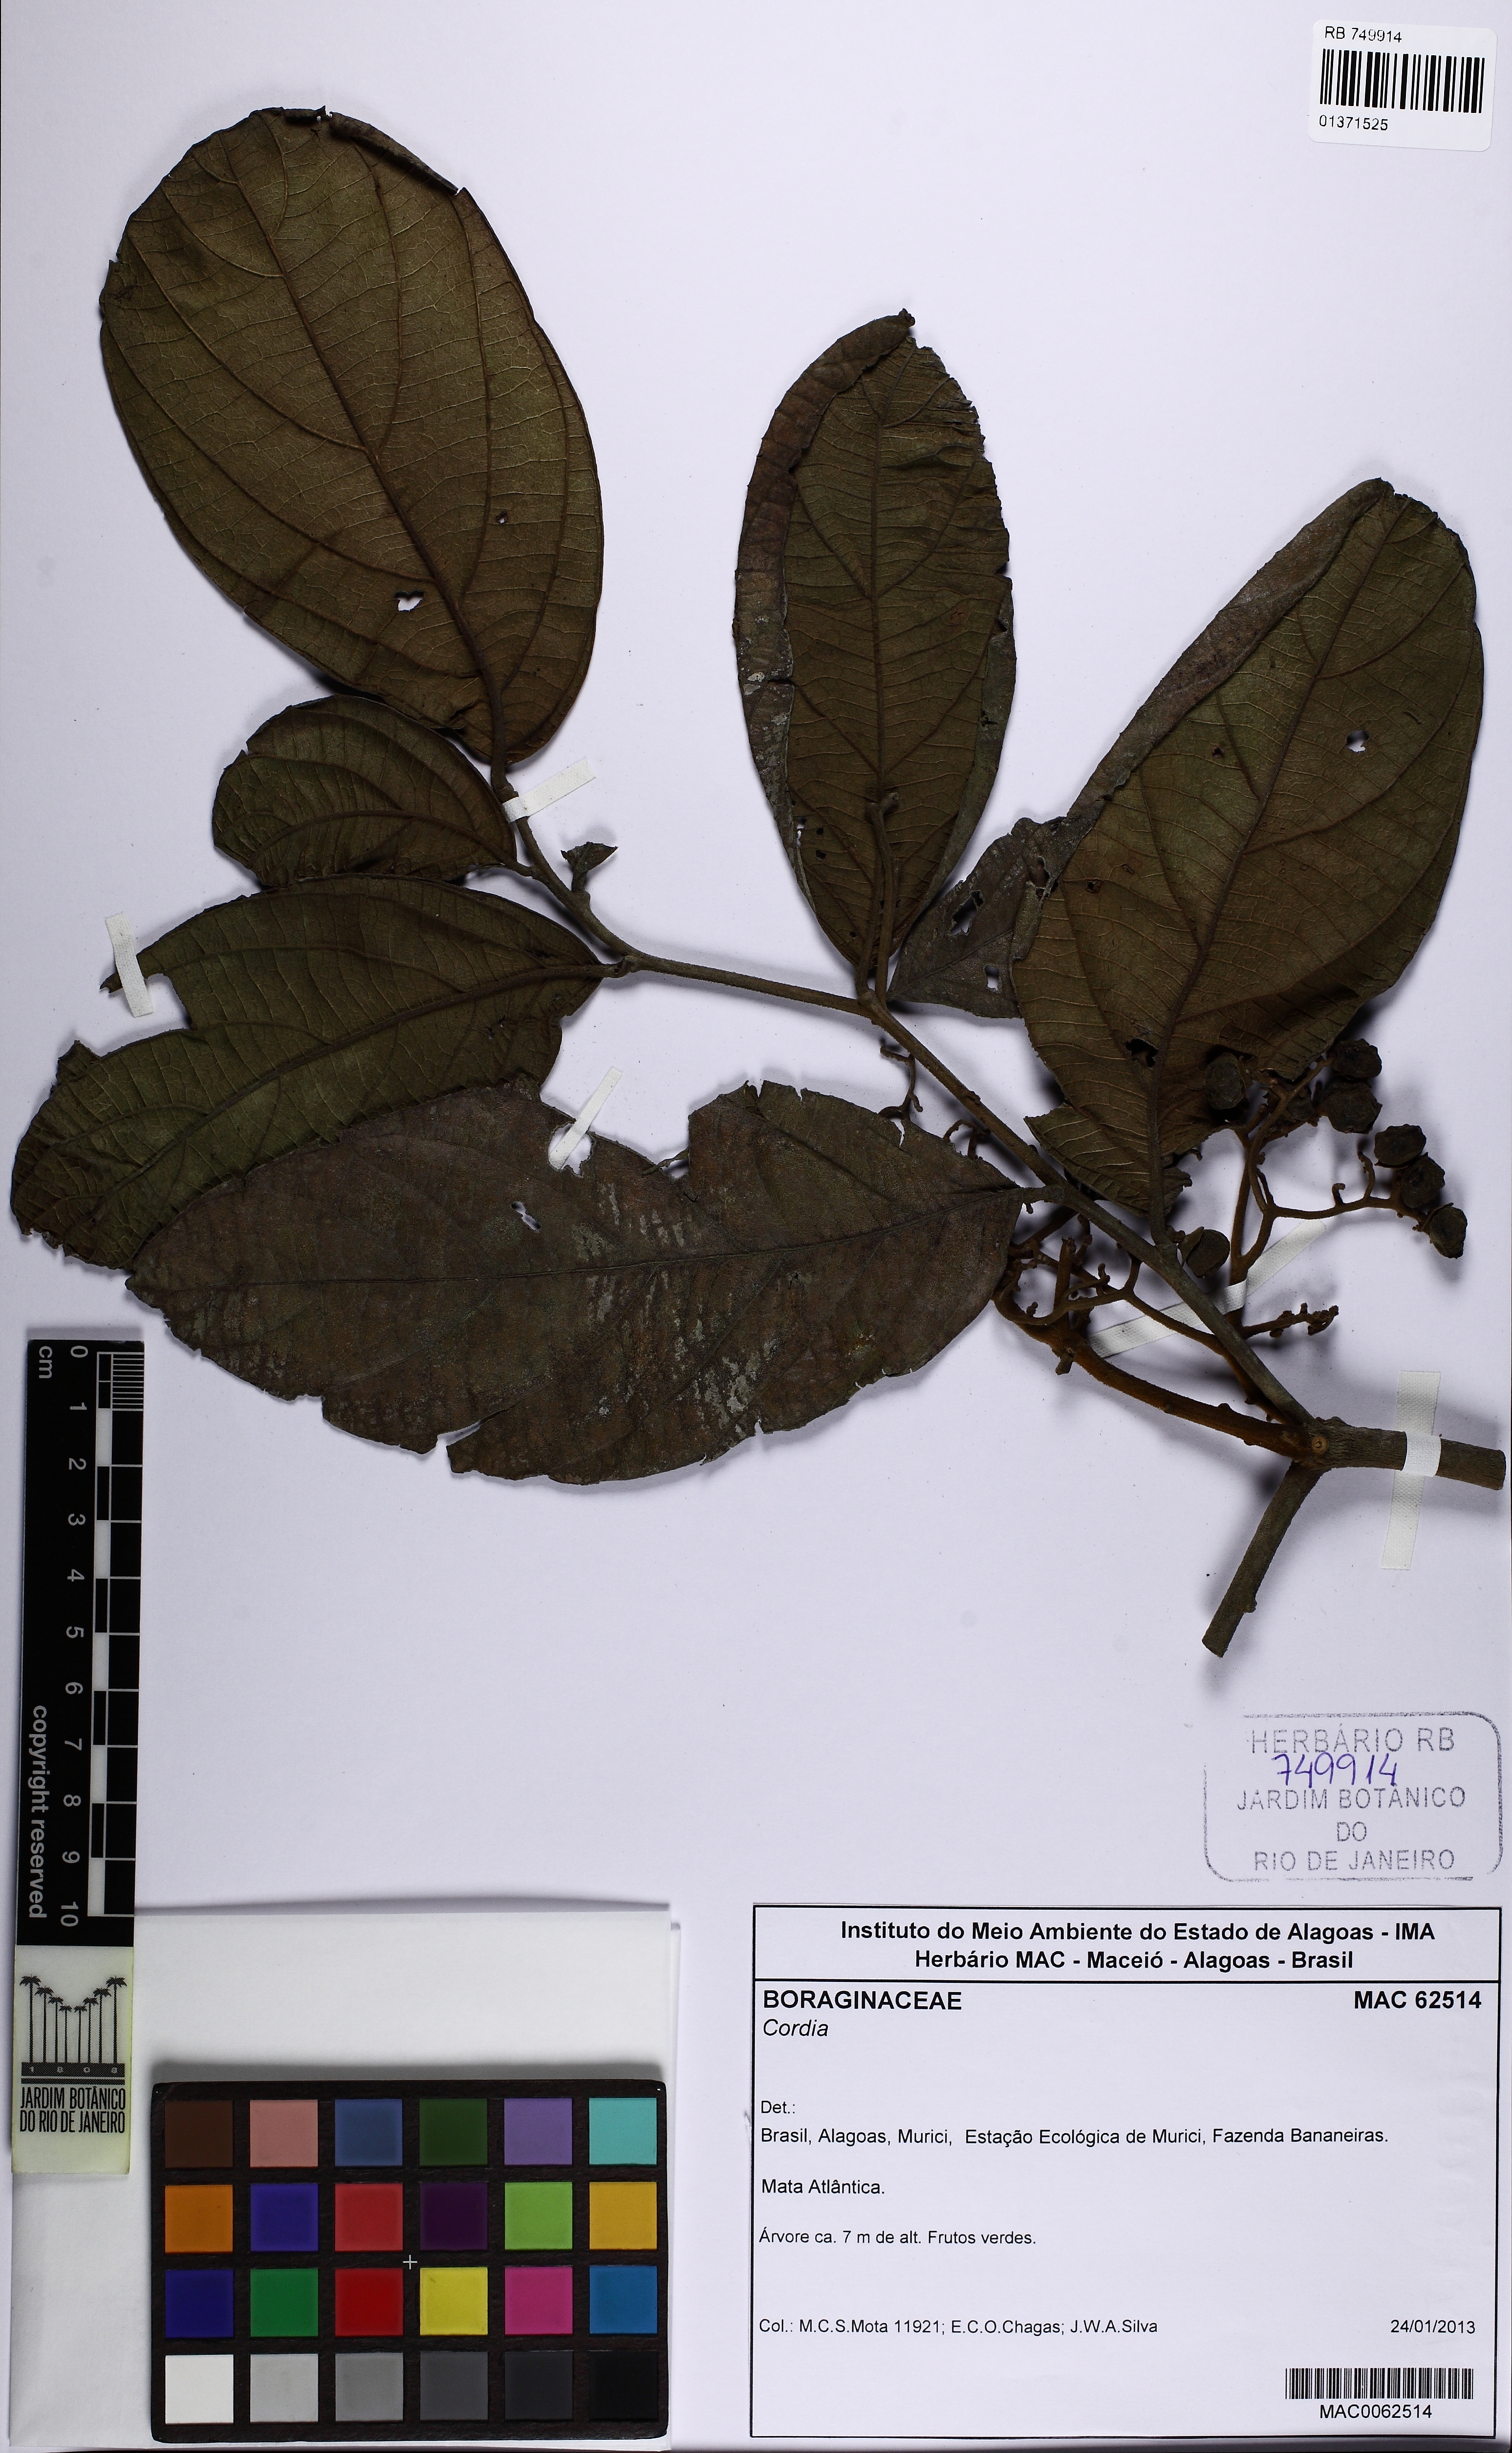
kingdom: Plantae
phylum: Tracheophyta
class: Magnoliopsida
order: Boraginales
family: Cordiaceae
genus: Cordia
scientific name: Cordia
